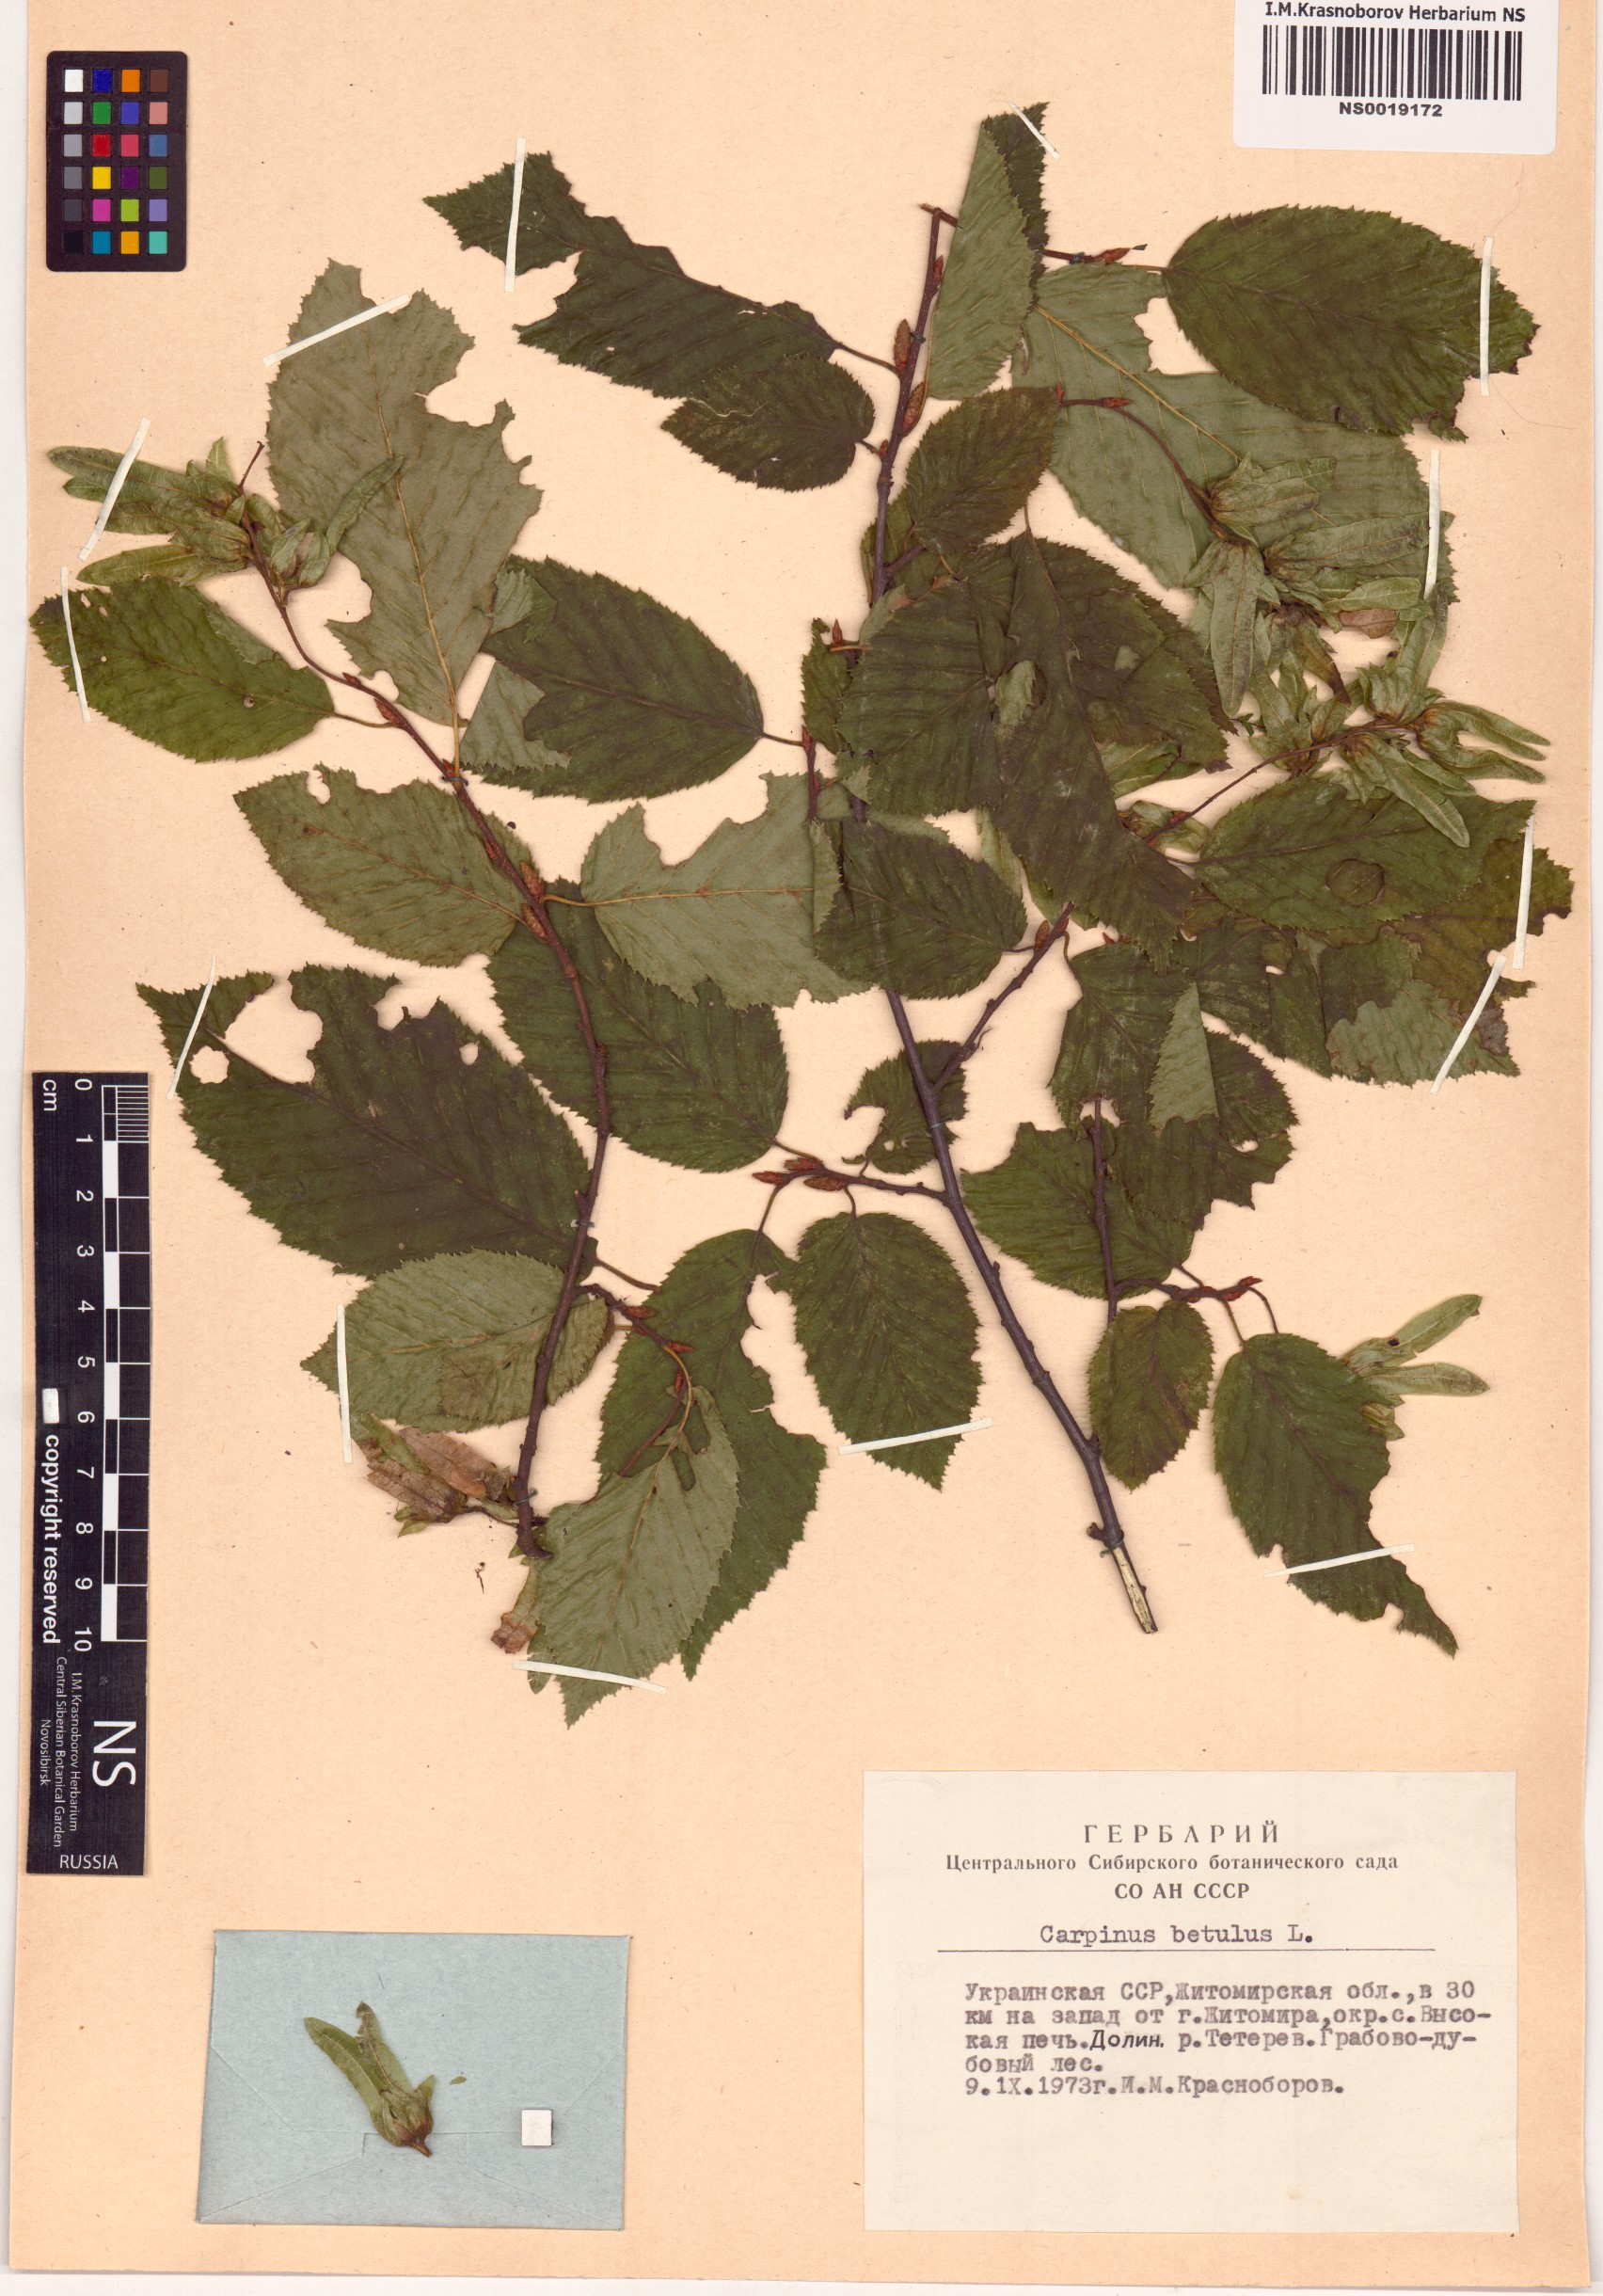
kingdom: Plantae
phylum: Tracheophyta
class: Magnoliopsida
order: Fagales
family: Betulaceae
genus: Carpinus
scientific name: Carpinus betulus
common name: Hornbeam
